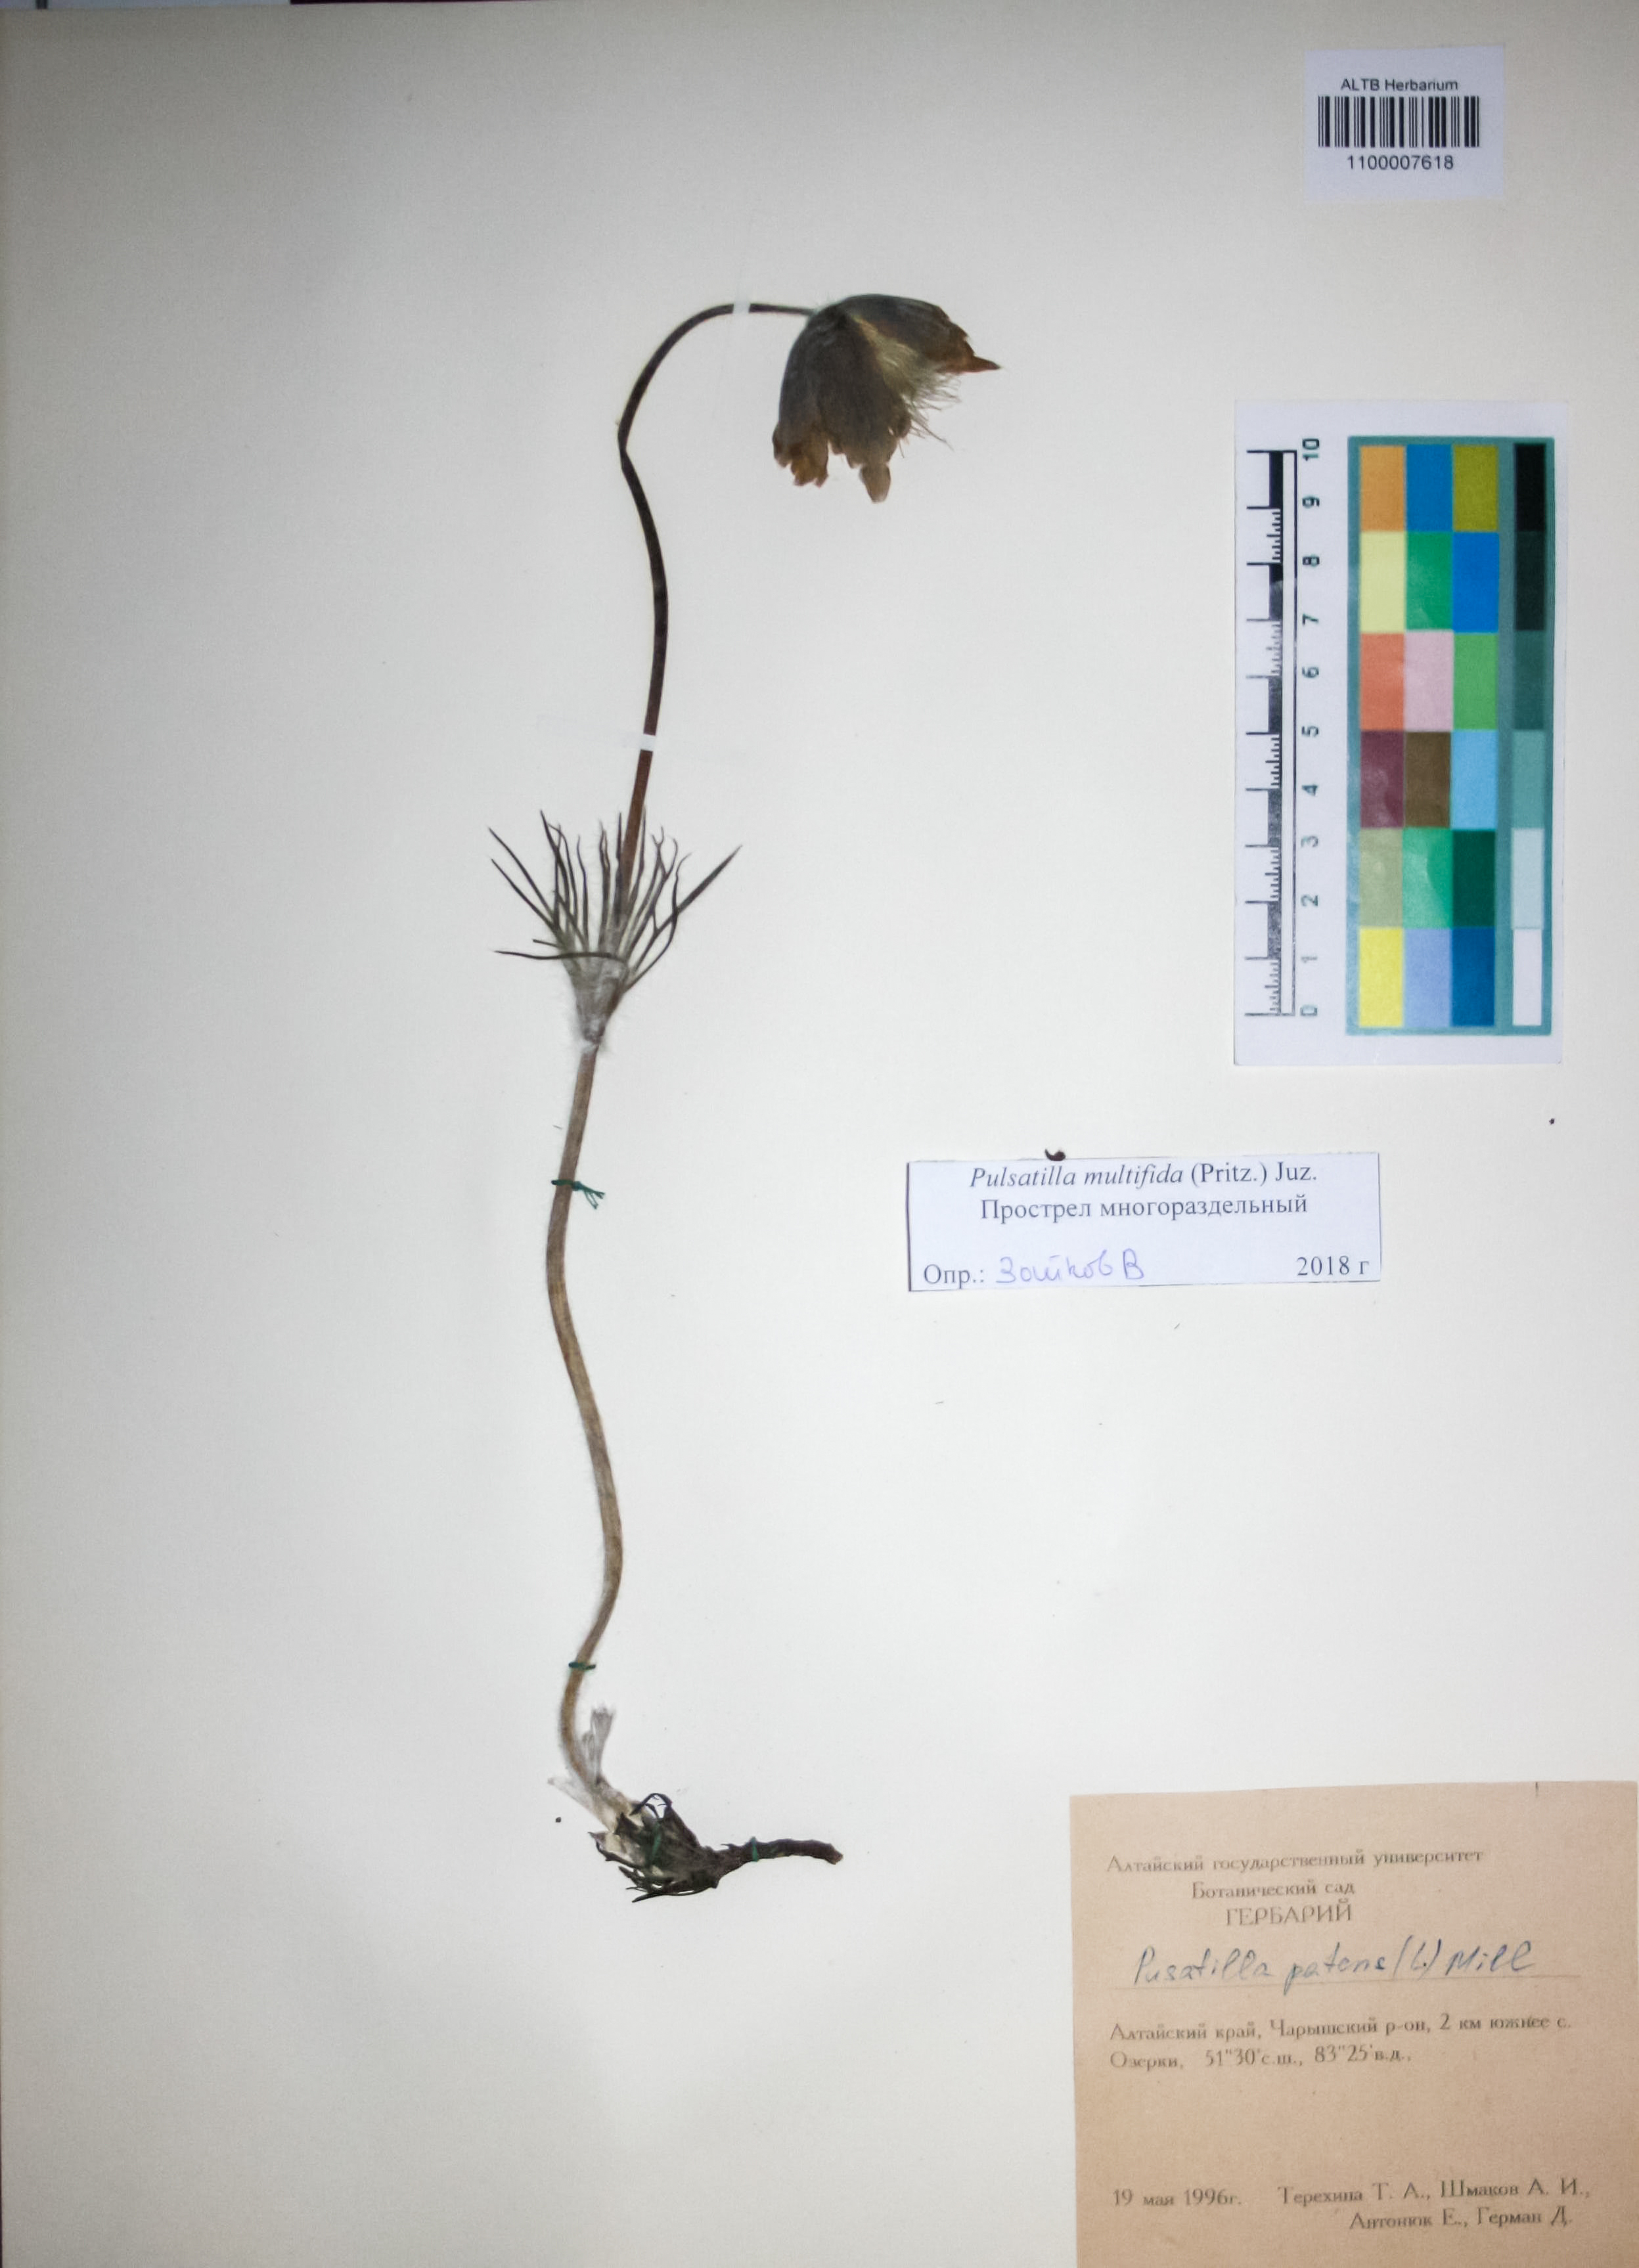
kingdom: Plantae
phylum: Tracheophyta
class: Magnoliopsida
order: Ranunculales
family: Ranunculaceae
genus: Pulsatilla
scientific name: Pulsatilla patens
